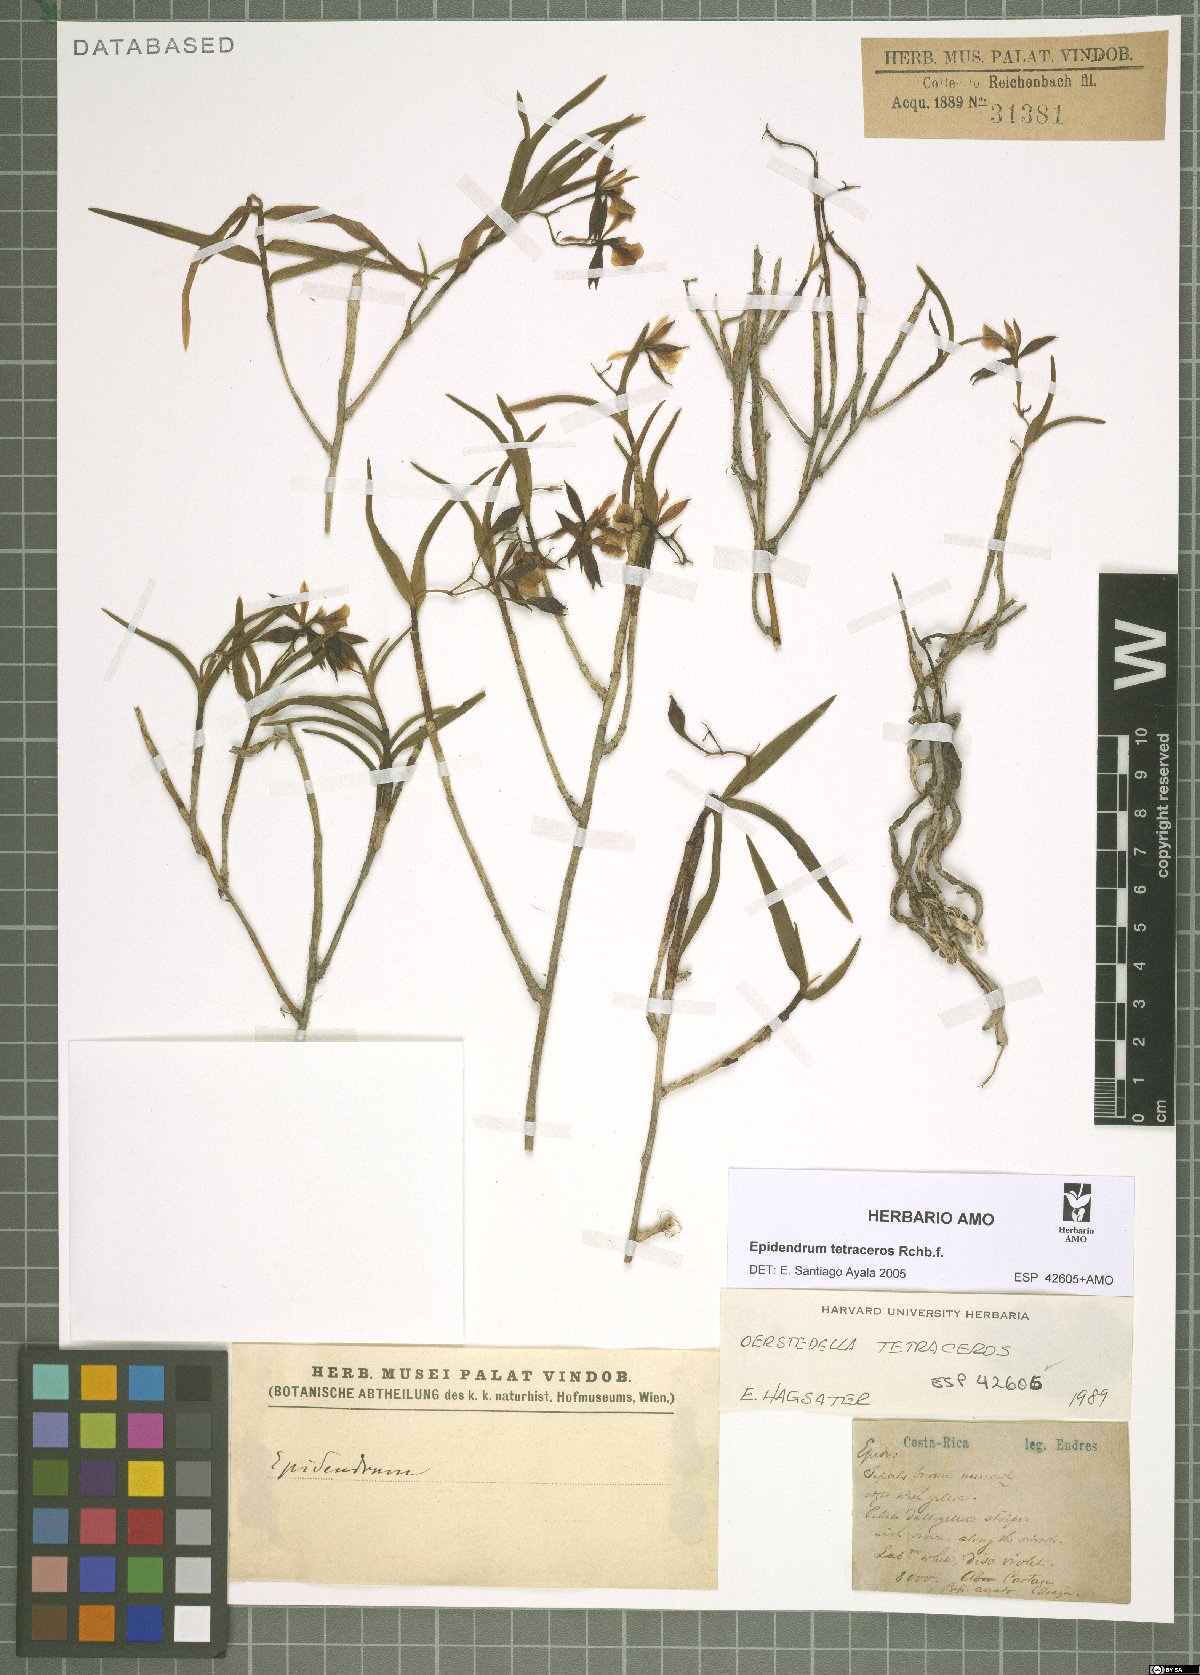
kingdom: Plantae
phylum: Tracheophyta
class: Liliopsida
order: Asparagales
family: Orchidaceae
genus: Epidendrum
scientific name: Epidendrum tetraceros
